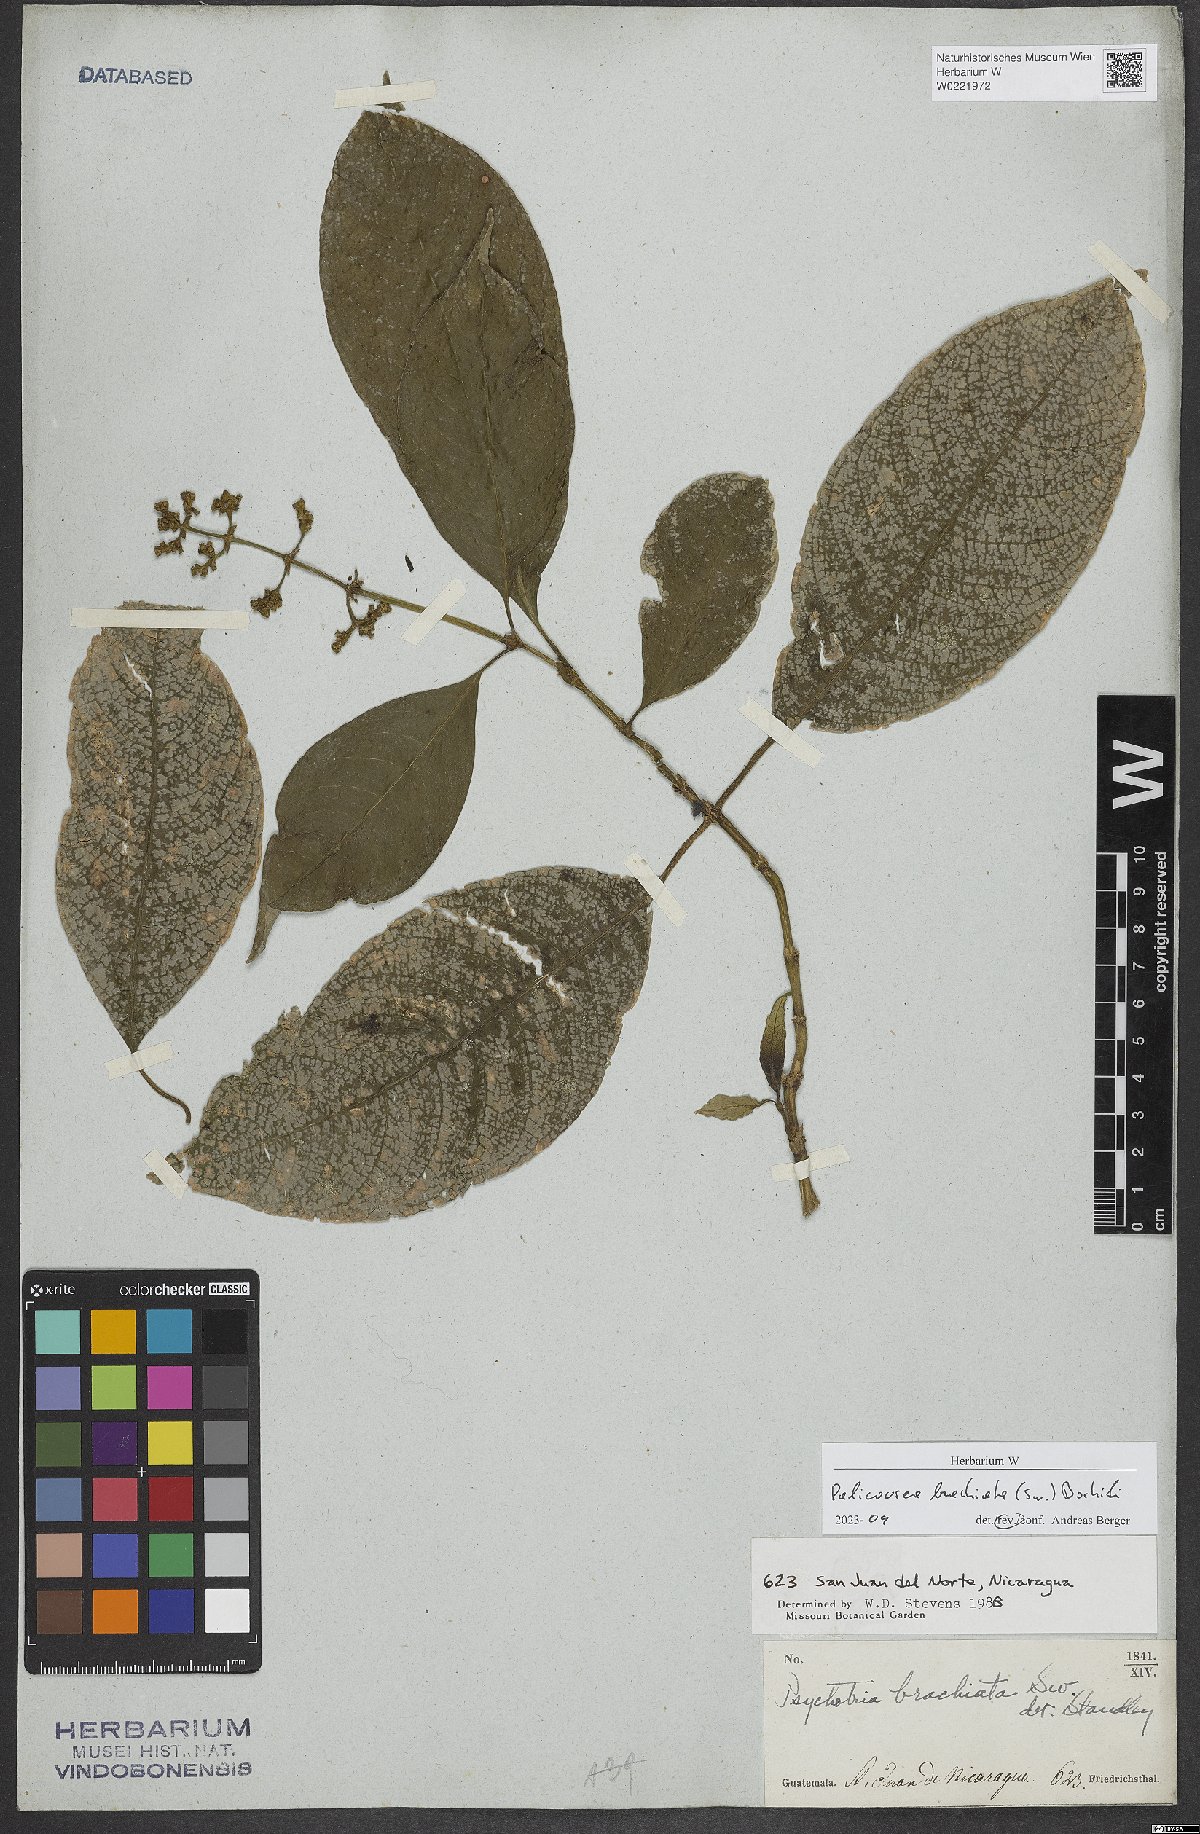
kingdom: Plantae
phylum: Tracheophyta
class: Magnoliopsida
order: Gentianales
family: Rubiaceae
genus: Palicourea
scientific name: Palicourea brachiata
